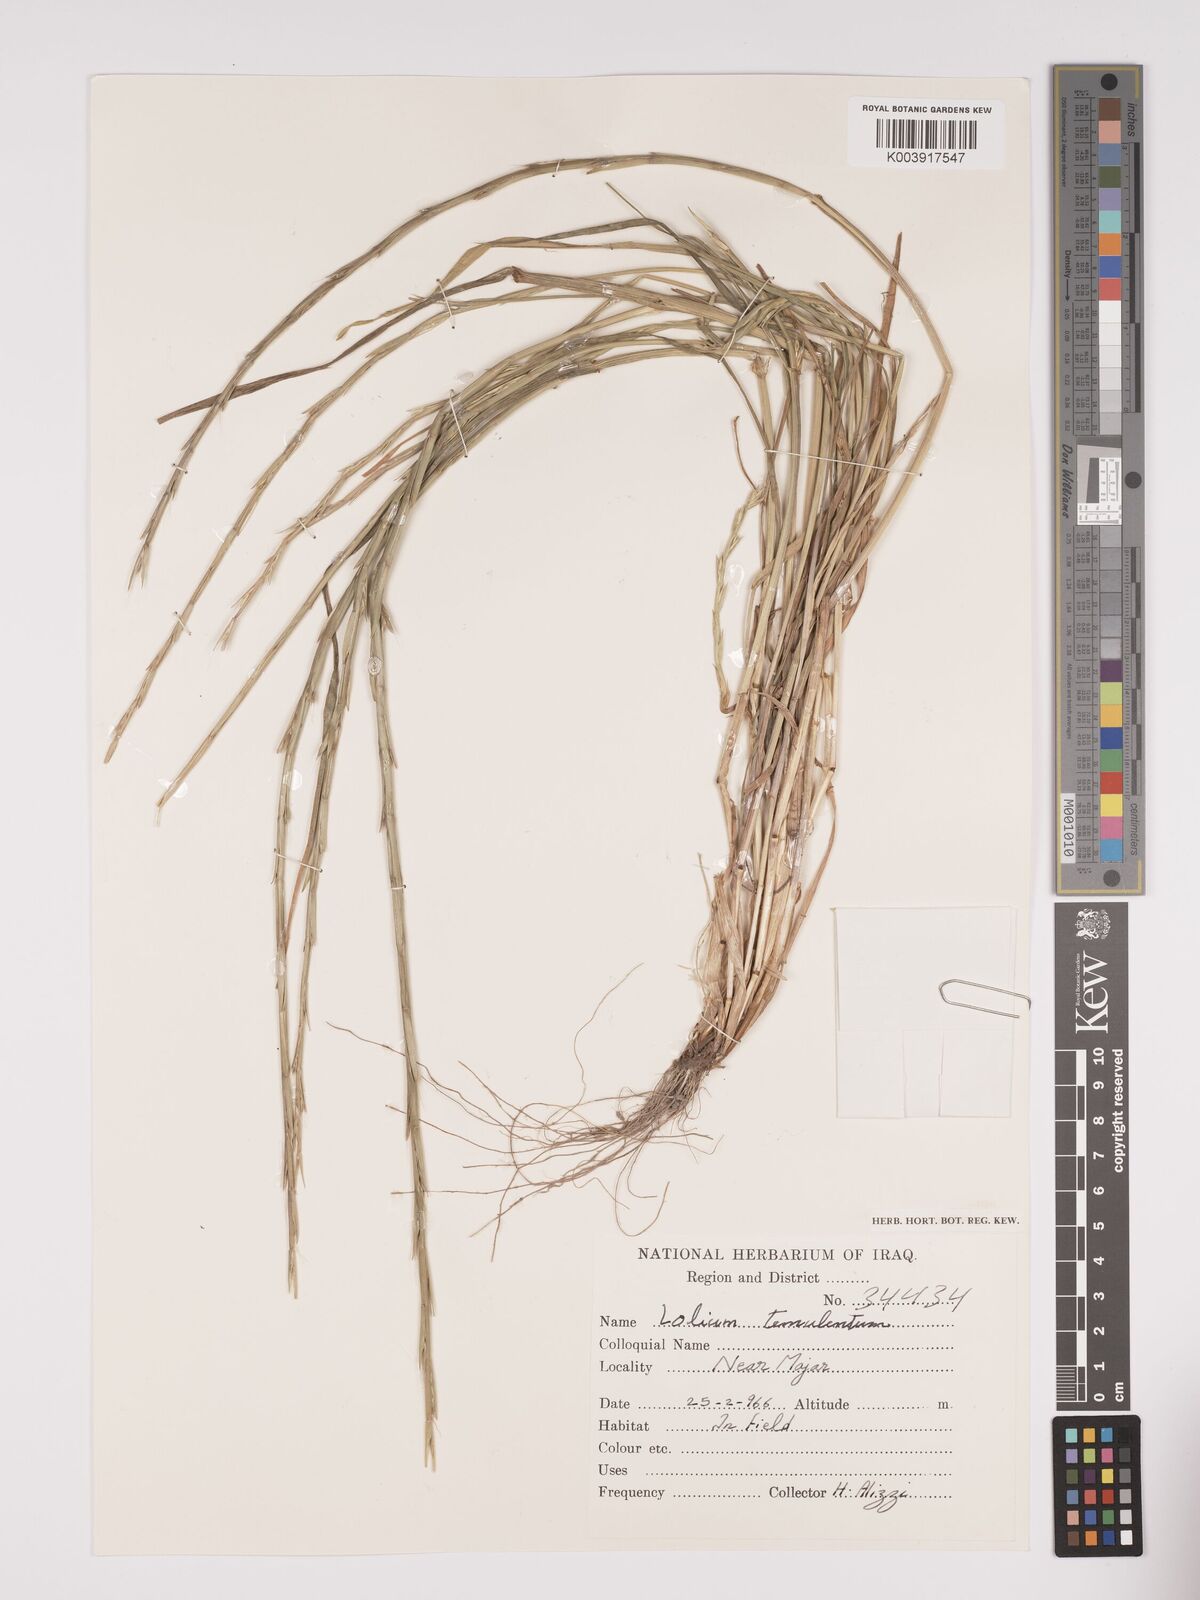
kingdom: Plantae
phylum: Tracheophyta
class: Liliopsida
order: Poales
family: Poaceae
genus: Lolium
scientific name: Lolium temulentum
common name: Darnel
